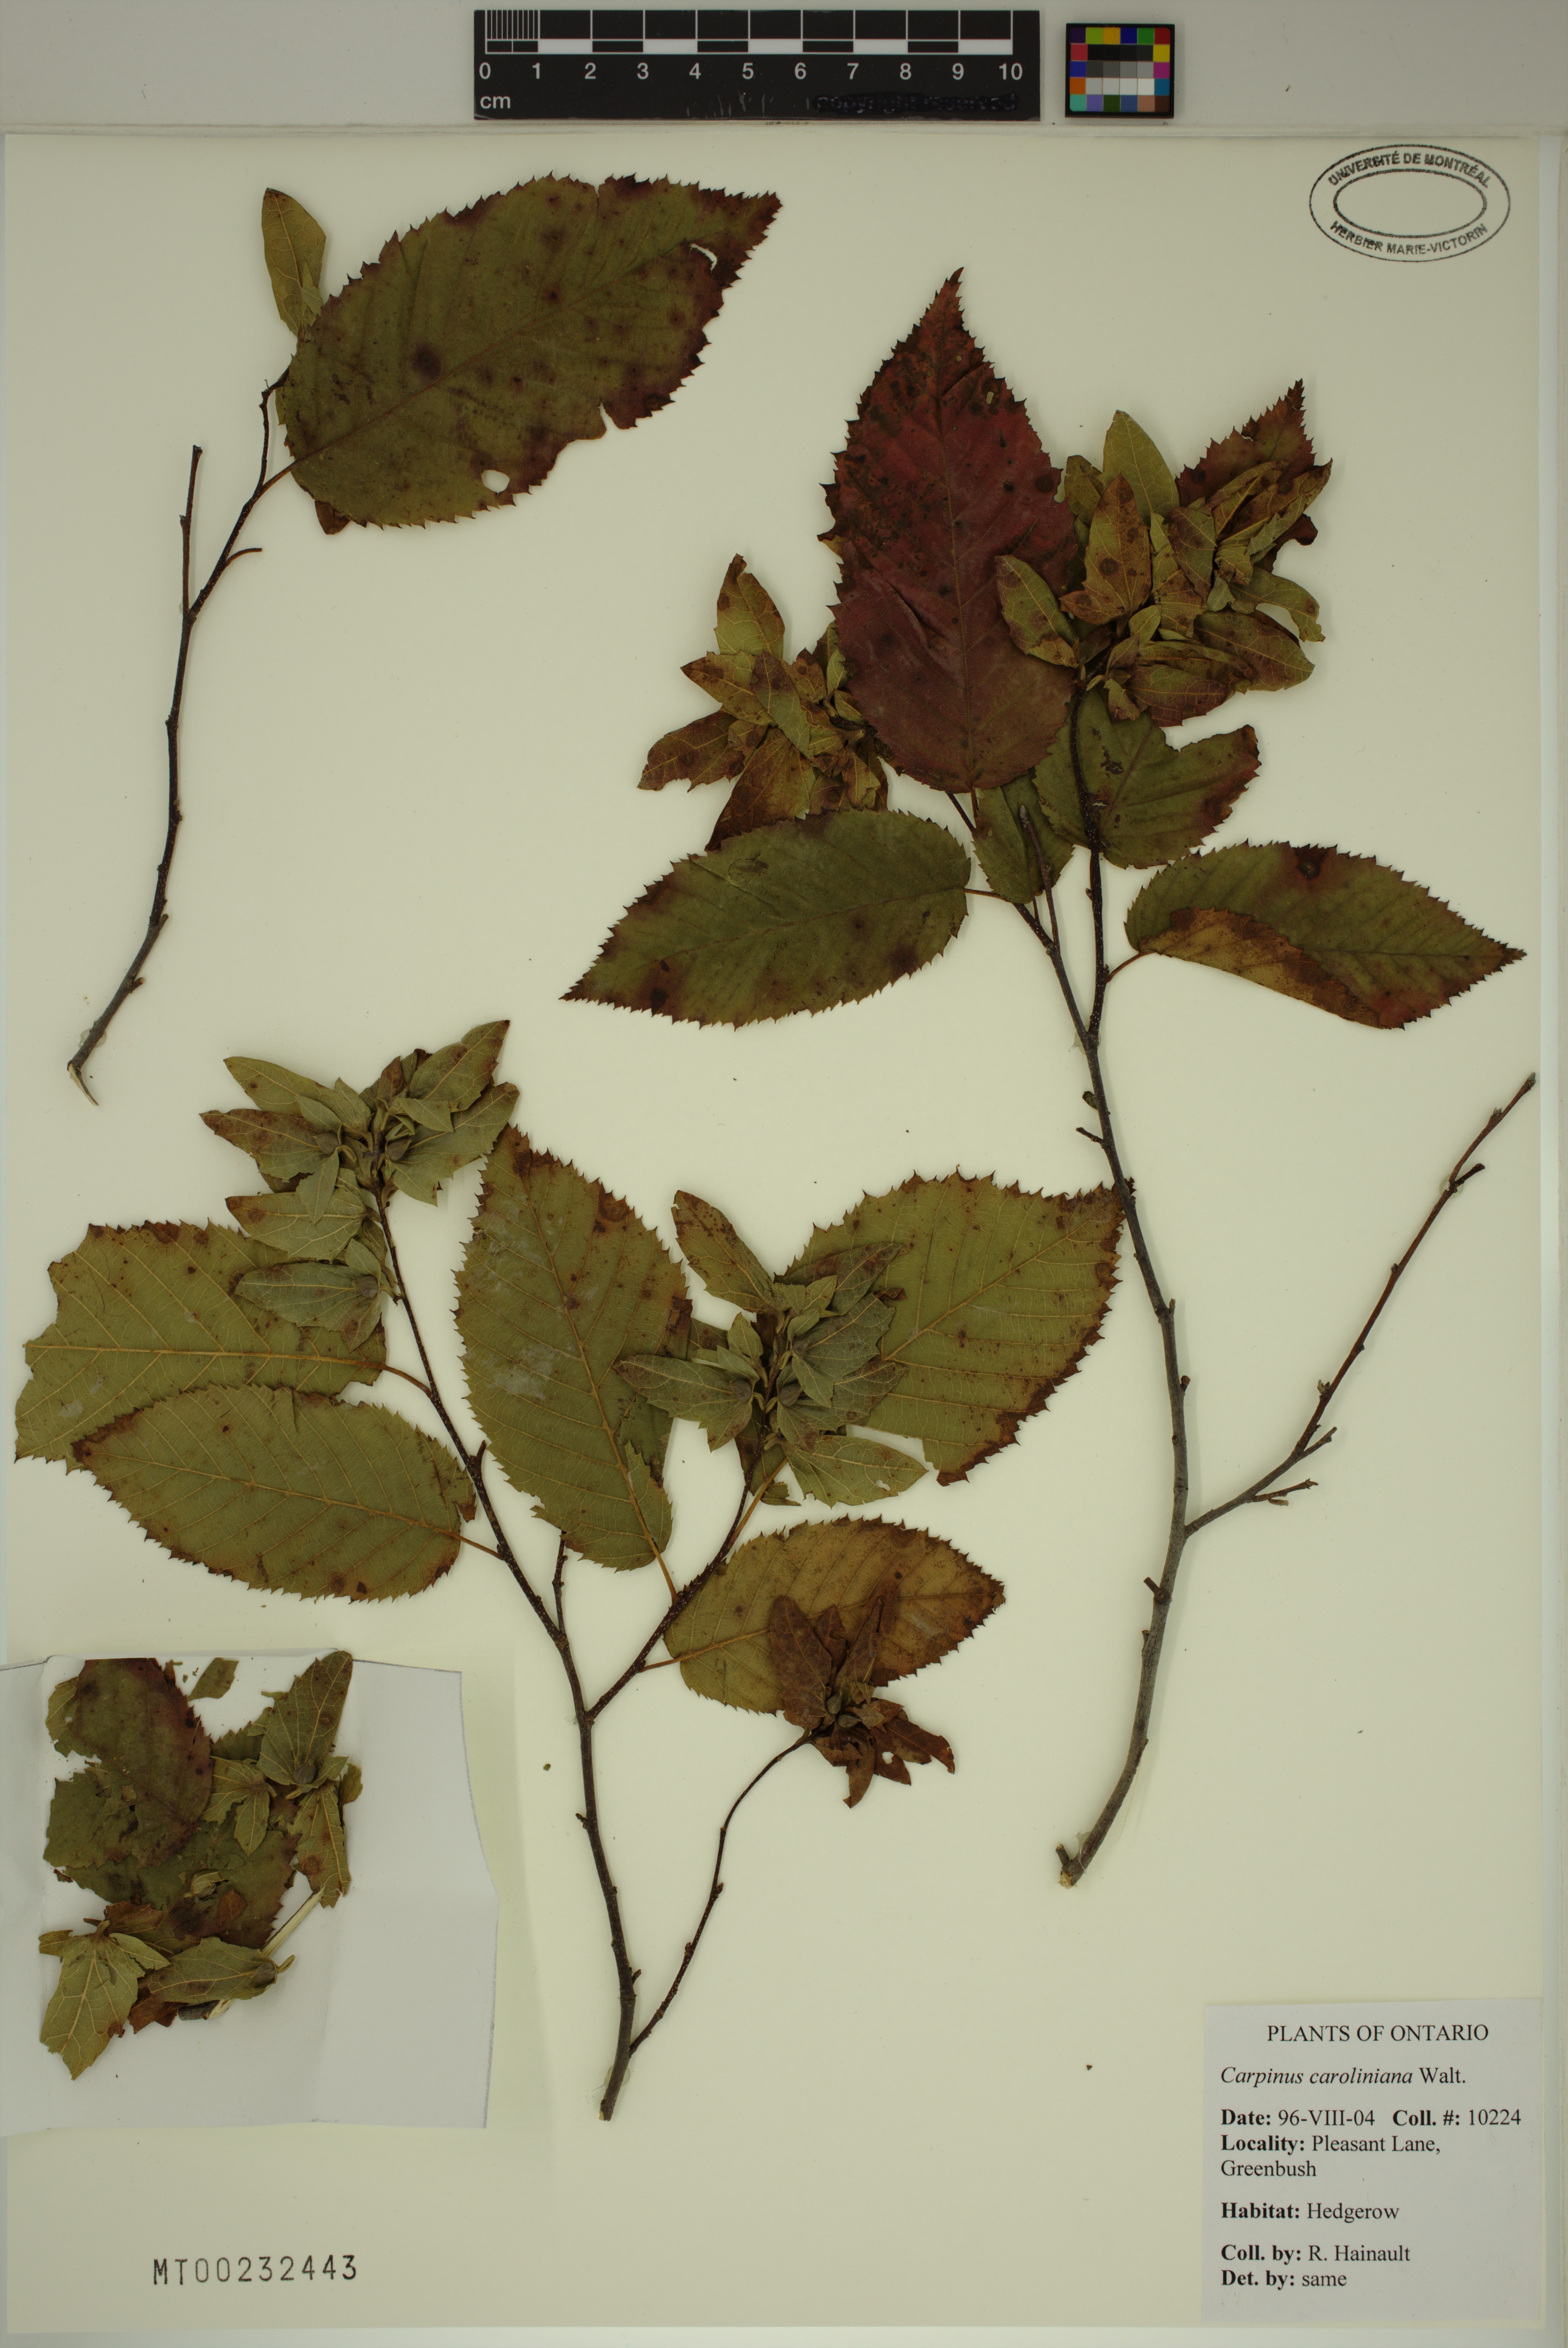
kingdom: Plantae
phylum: Tracheophyta
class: Magnoliopsida
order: Fagales
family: Betulaceae
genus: Carpinus
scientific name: Carpinus caroliniana
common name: American hornbeam
